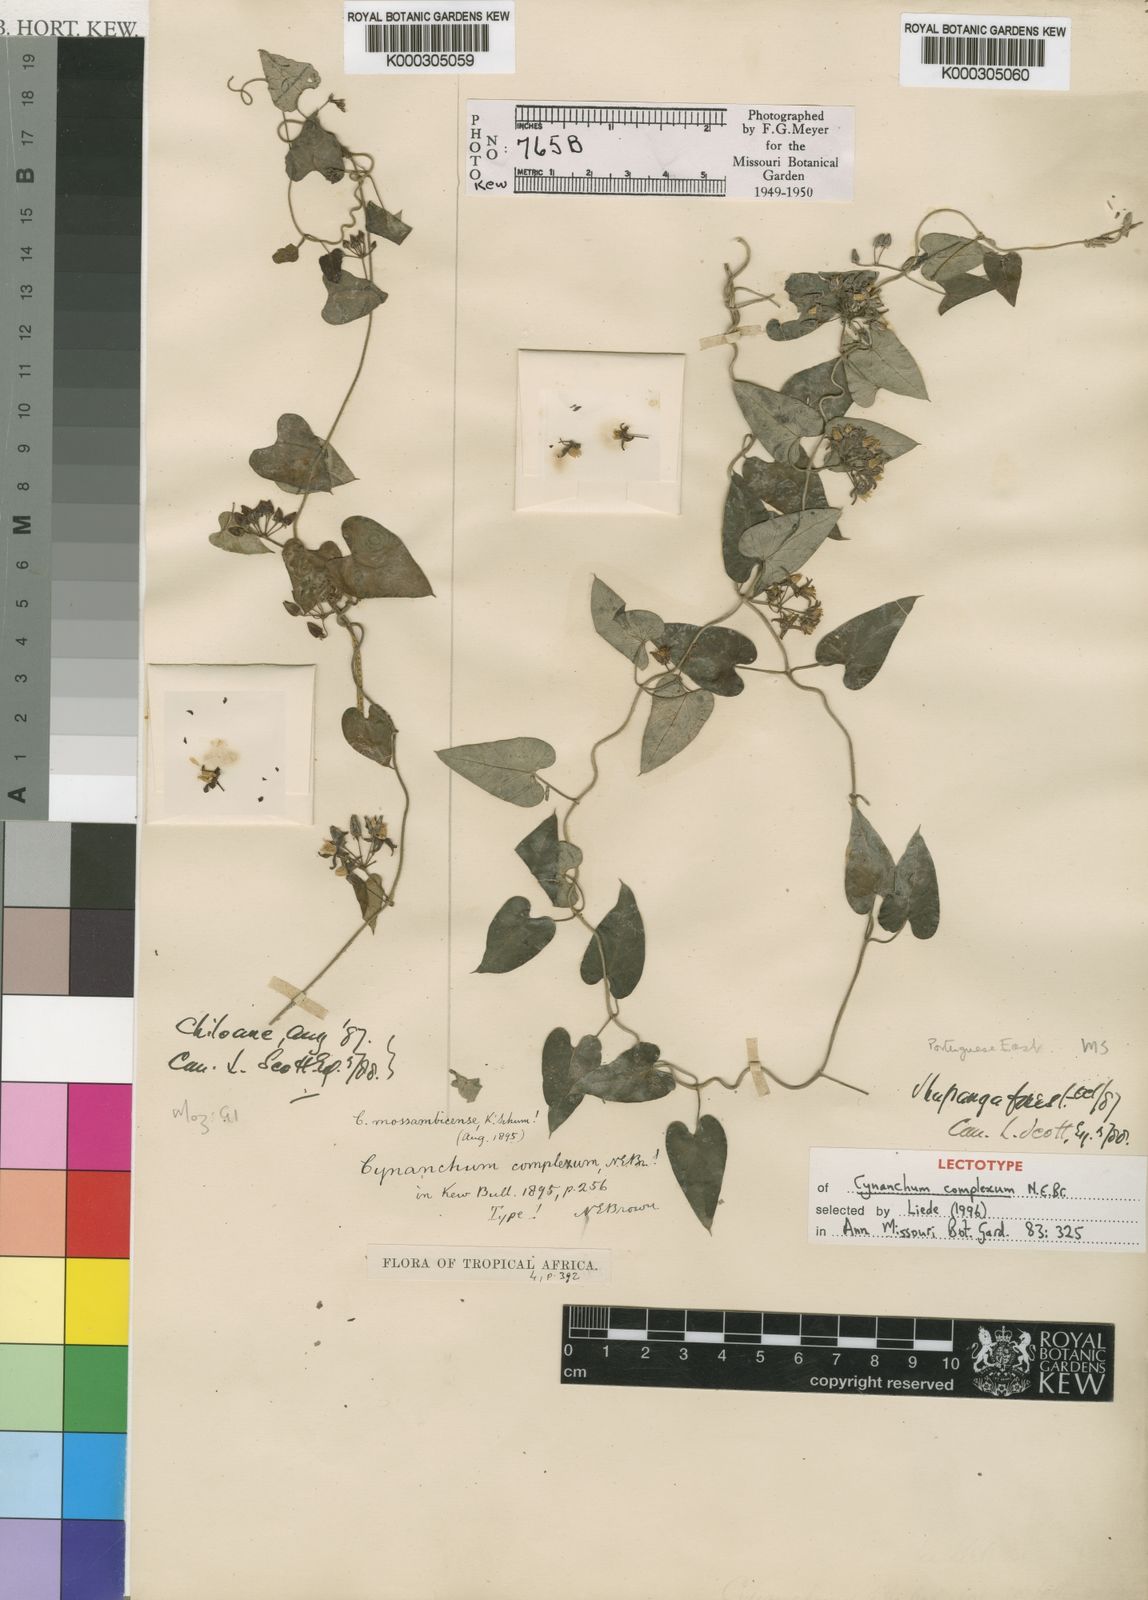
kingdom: Plantae
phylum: Tracheophyta
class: Magnoliopsida
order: Gentianales
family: Apocynaceae
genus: Cynanchum
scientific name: Cynanchum mossambicense
